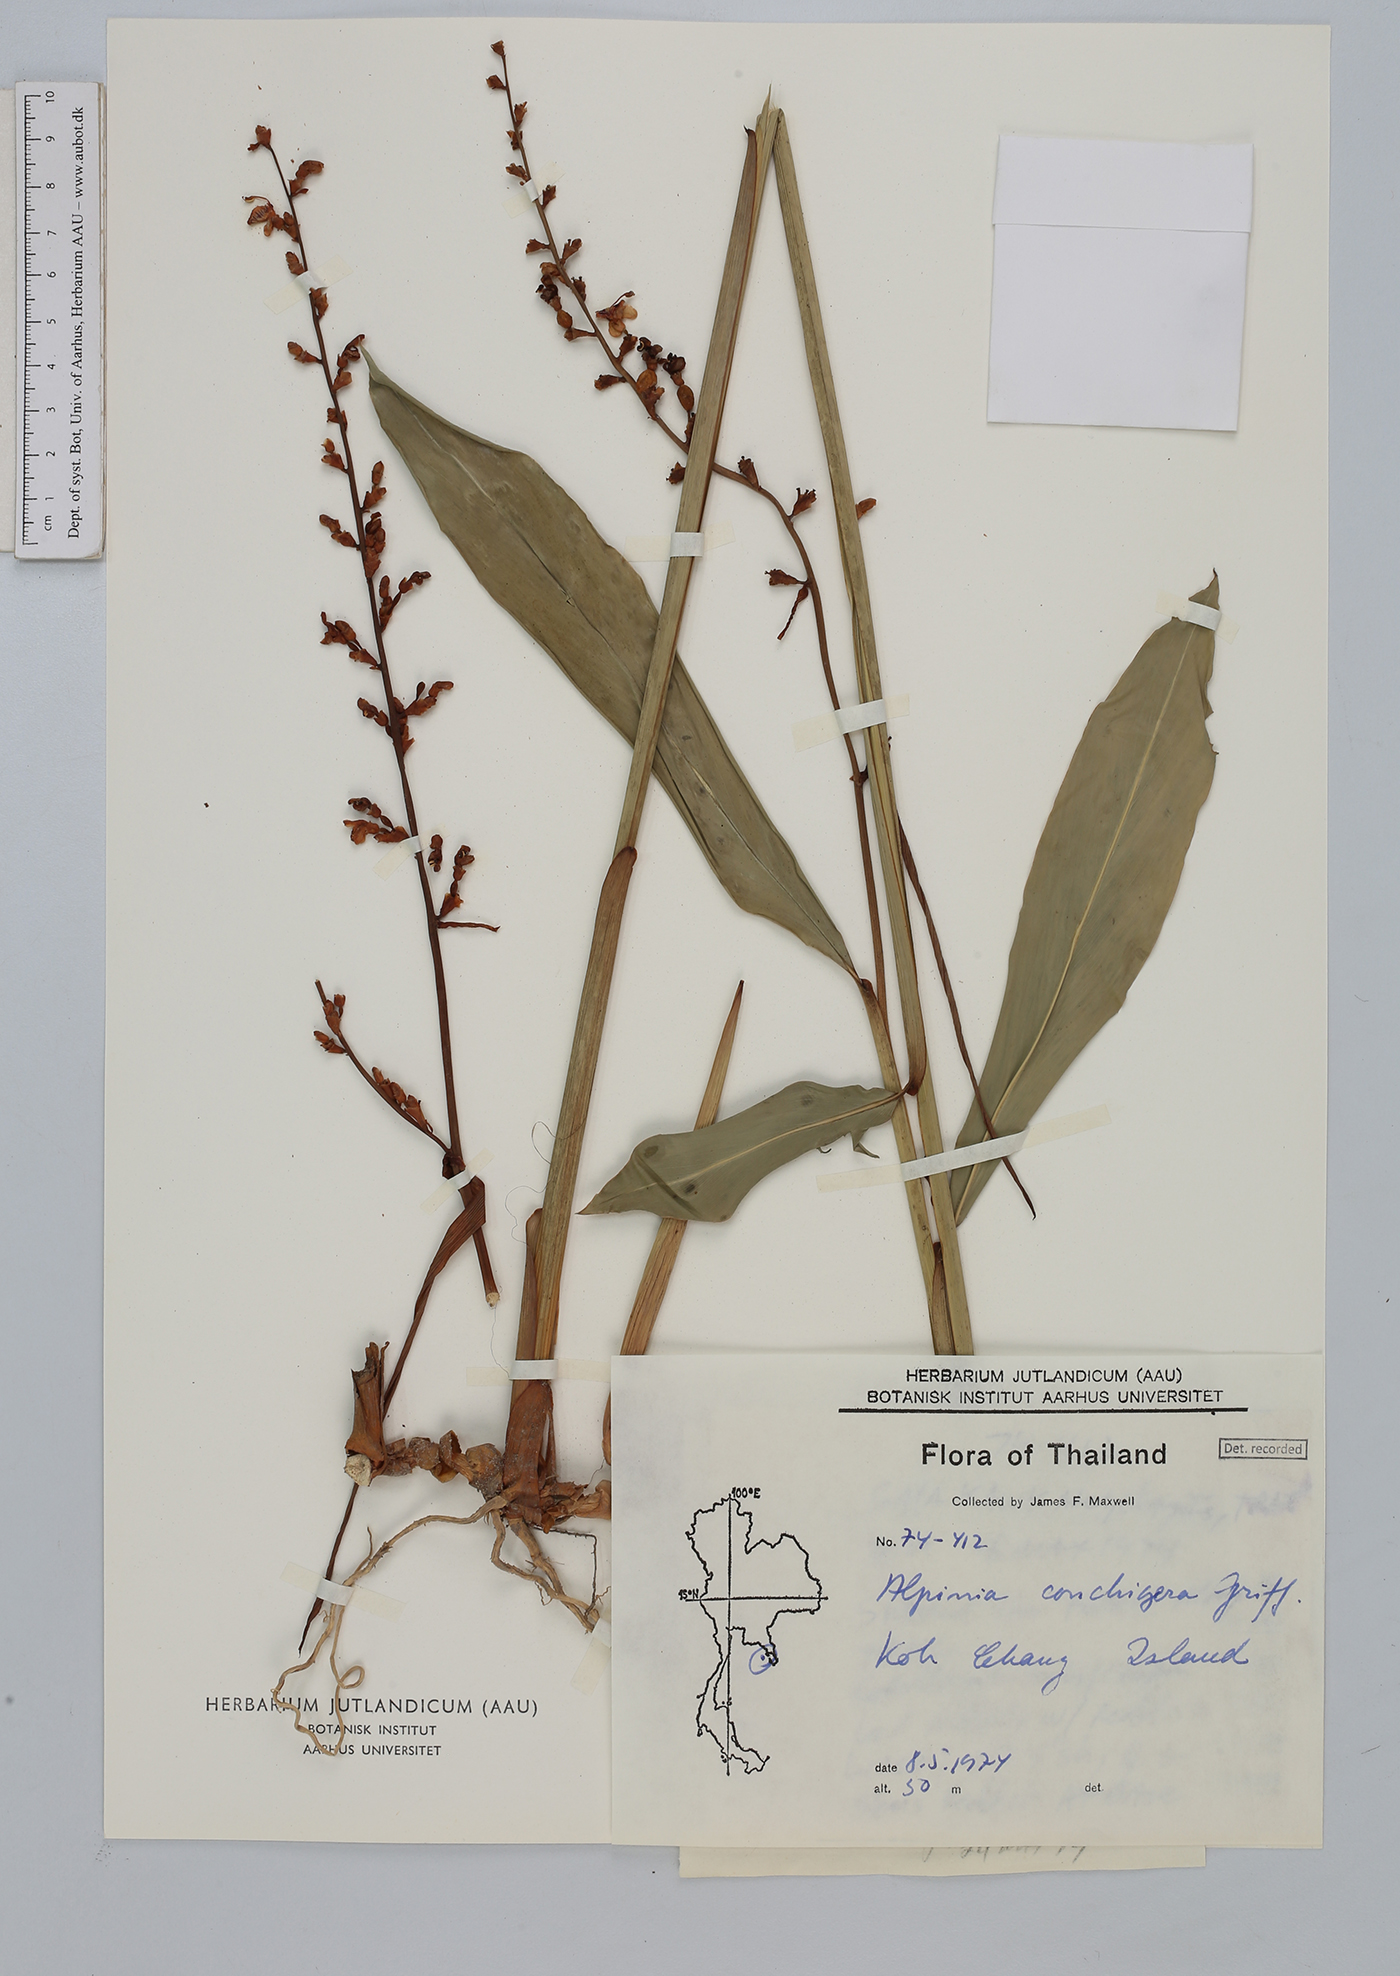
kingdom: Plantae
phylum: Tracheophyta
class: Liliopsida
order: Zingiberales
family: Zingiberaceae
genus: Alpinia
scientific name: Alpinia conchigera
